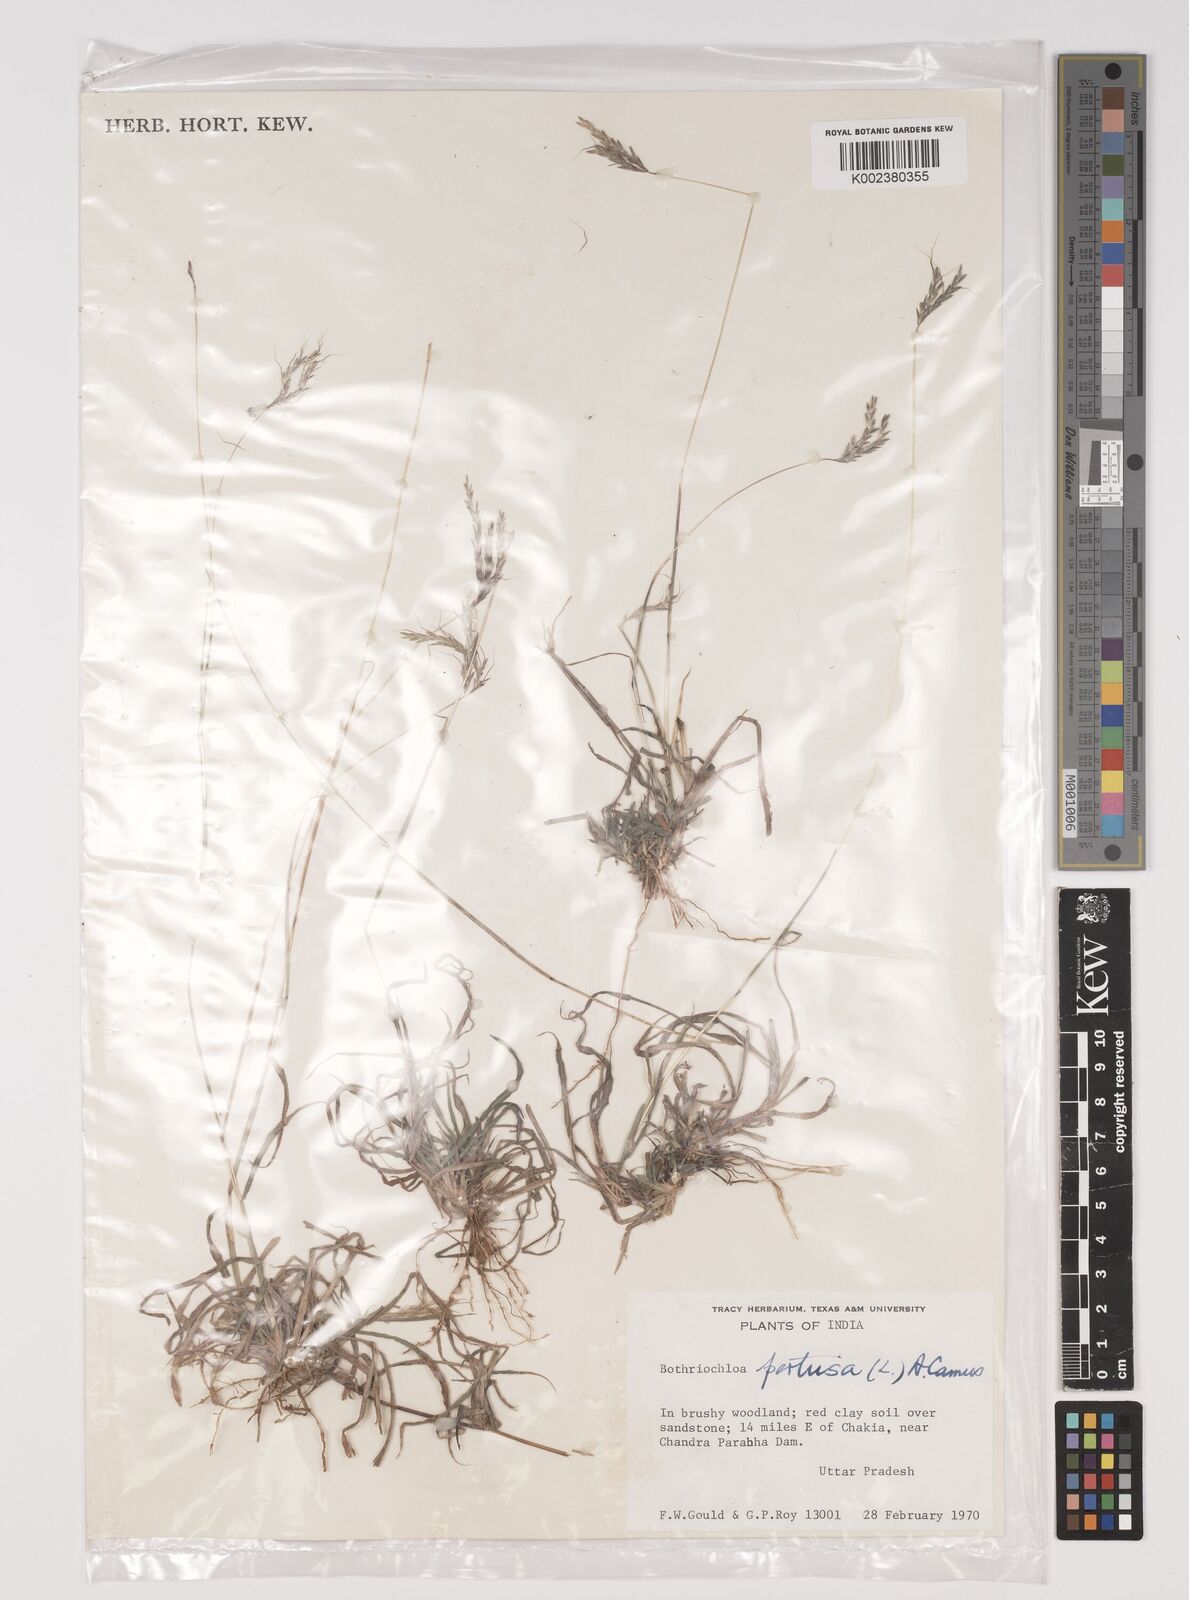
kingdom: Plantae
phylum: Tracheophyta
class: Liliopsida
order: Poales
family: Poaceae
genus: Bothriochloa
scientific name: Bothriochloa pertusa
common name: Pitted beardgrass
